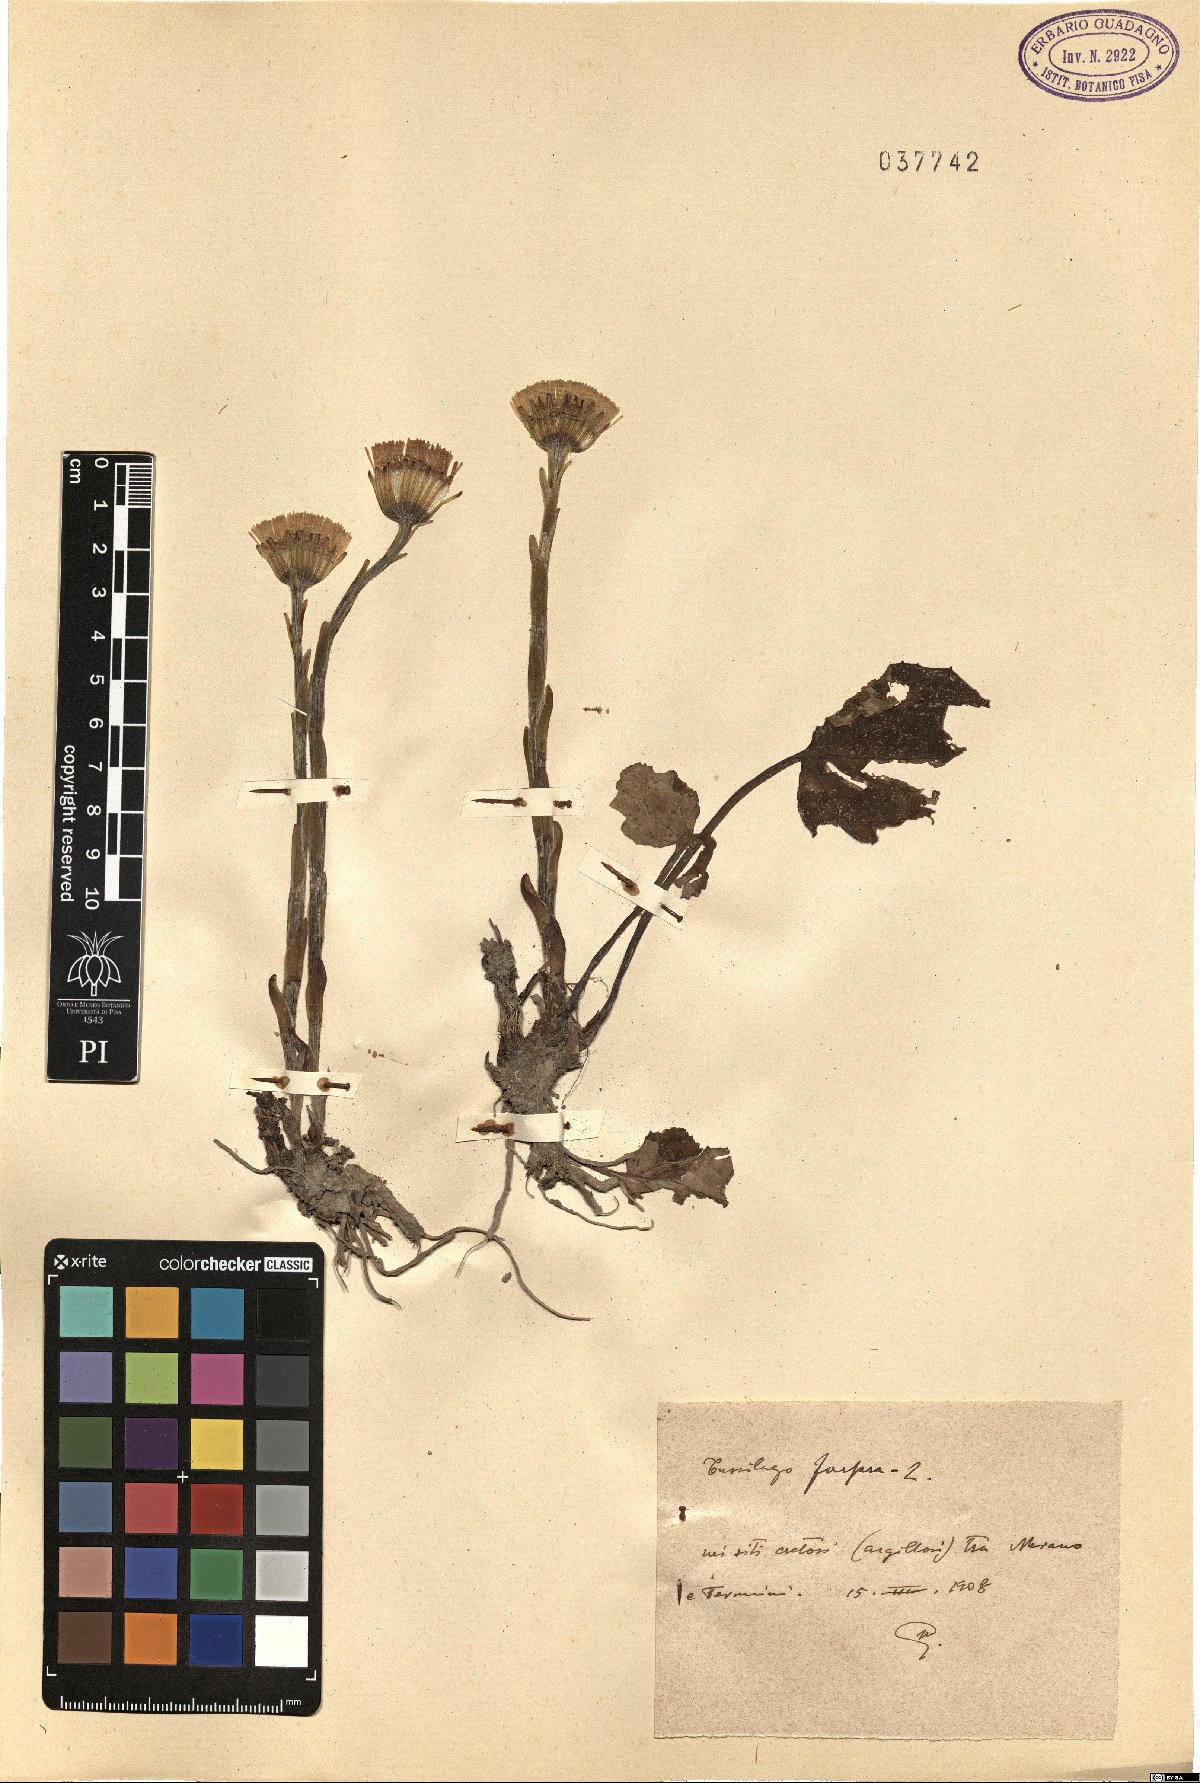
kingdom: Plantae
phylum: Tracheophyta
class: Magnoliopsida
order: Asterales
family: Asteraceae
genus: Tussilago
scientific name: Tussilago farfara
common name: Coltsfoot
